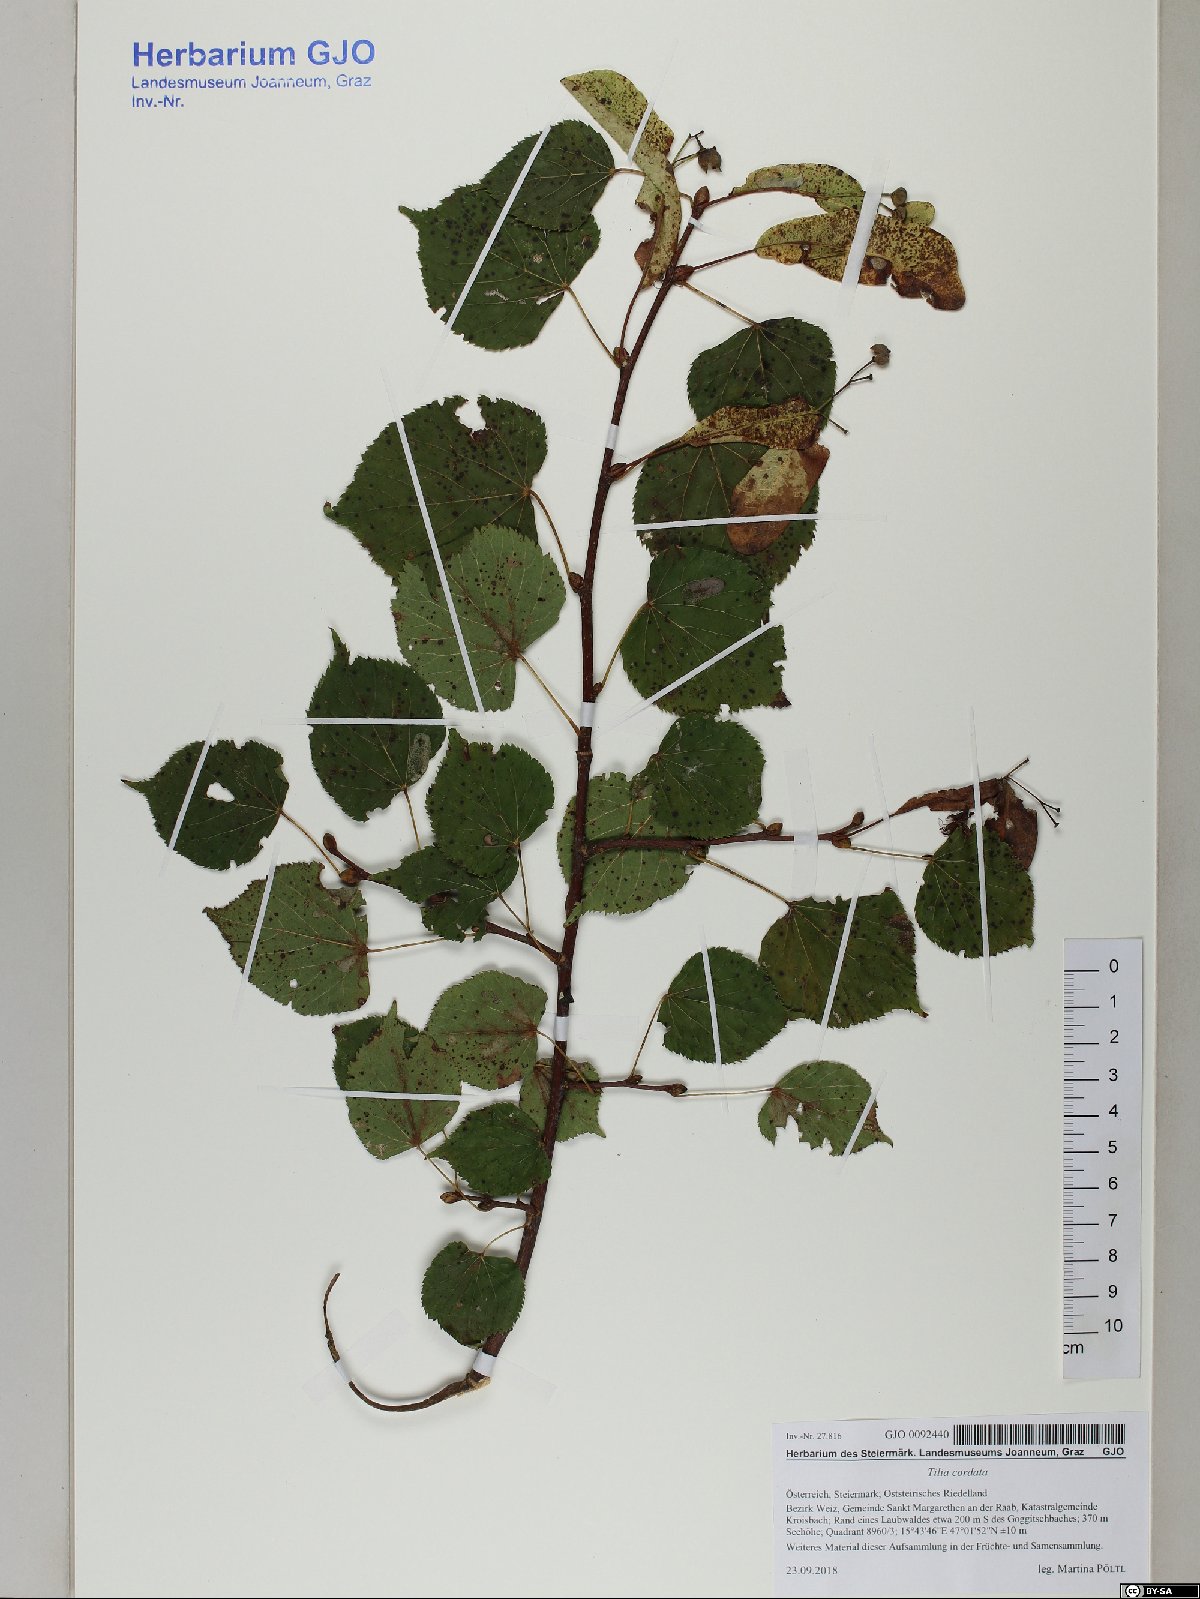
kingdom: Plantae
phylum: Tracheophyta
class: Magnoliopsida
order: Malvales
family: Malvaceae
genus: Tilia
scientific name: Tilia cordata
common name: Small-leaved lime
